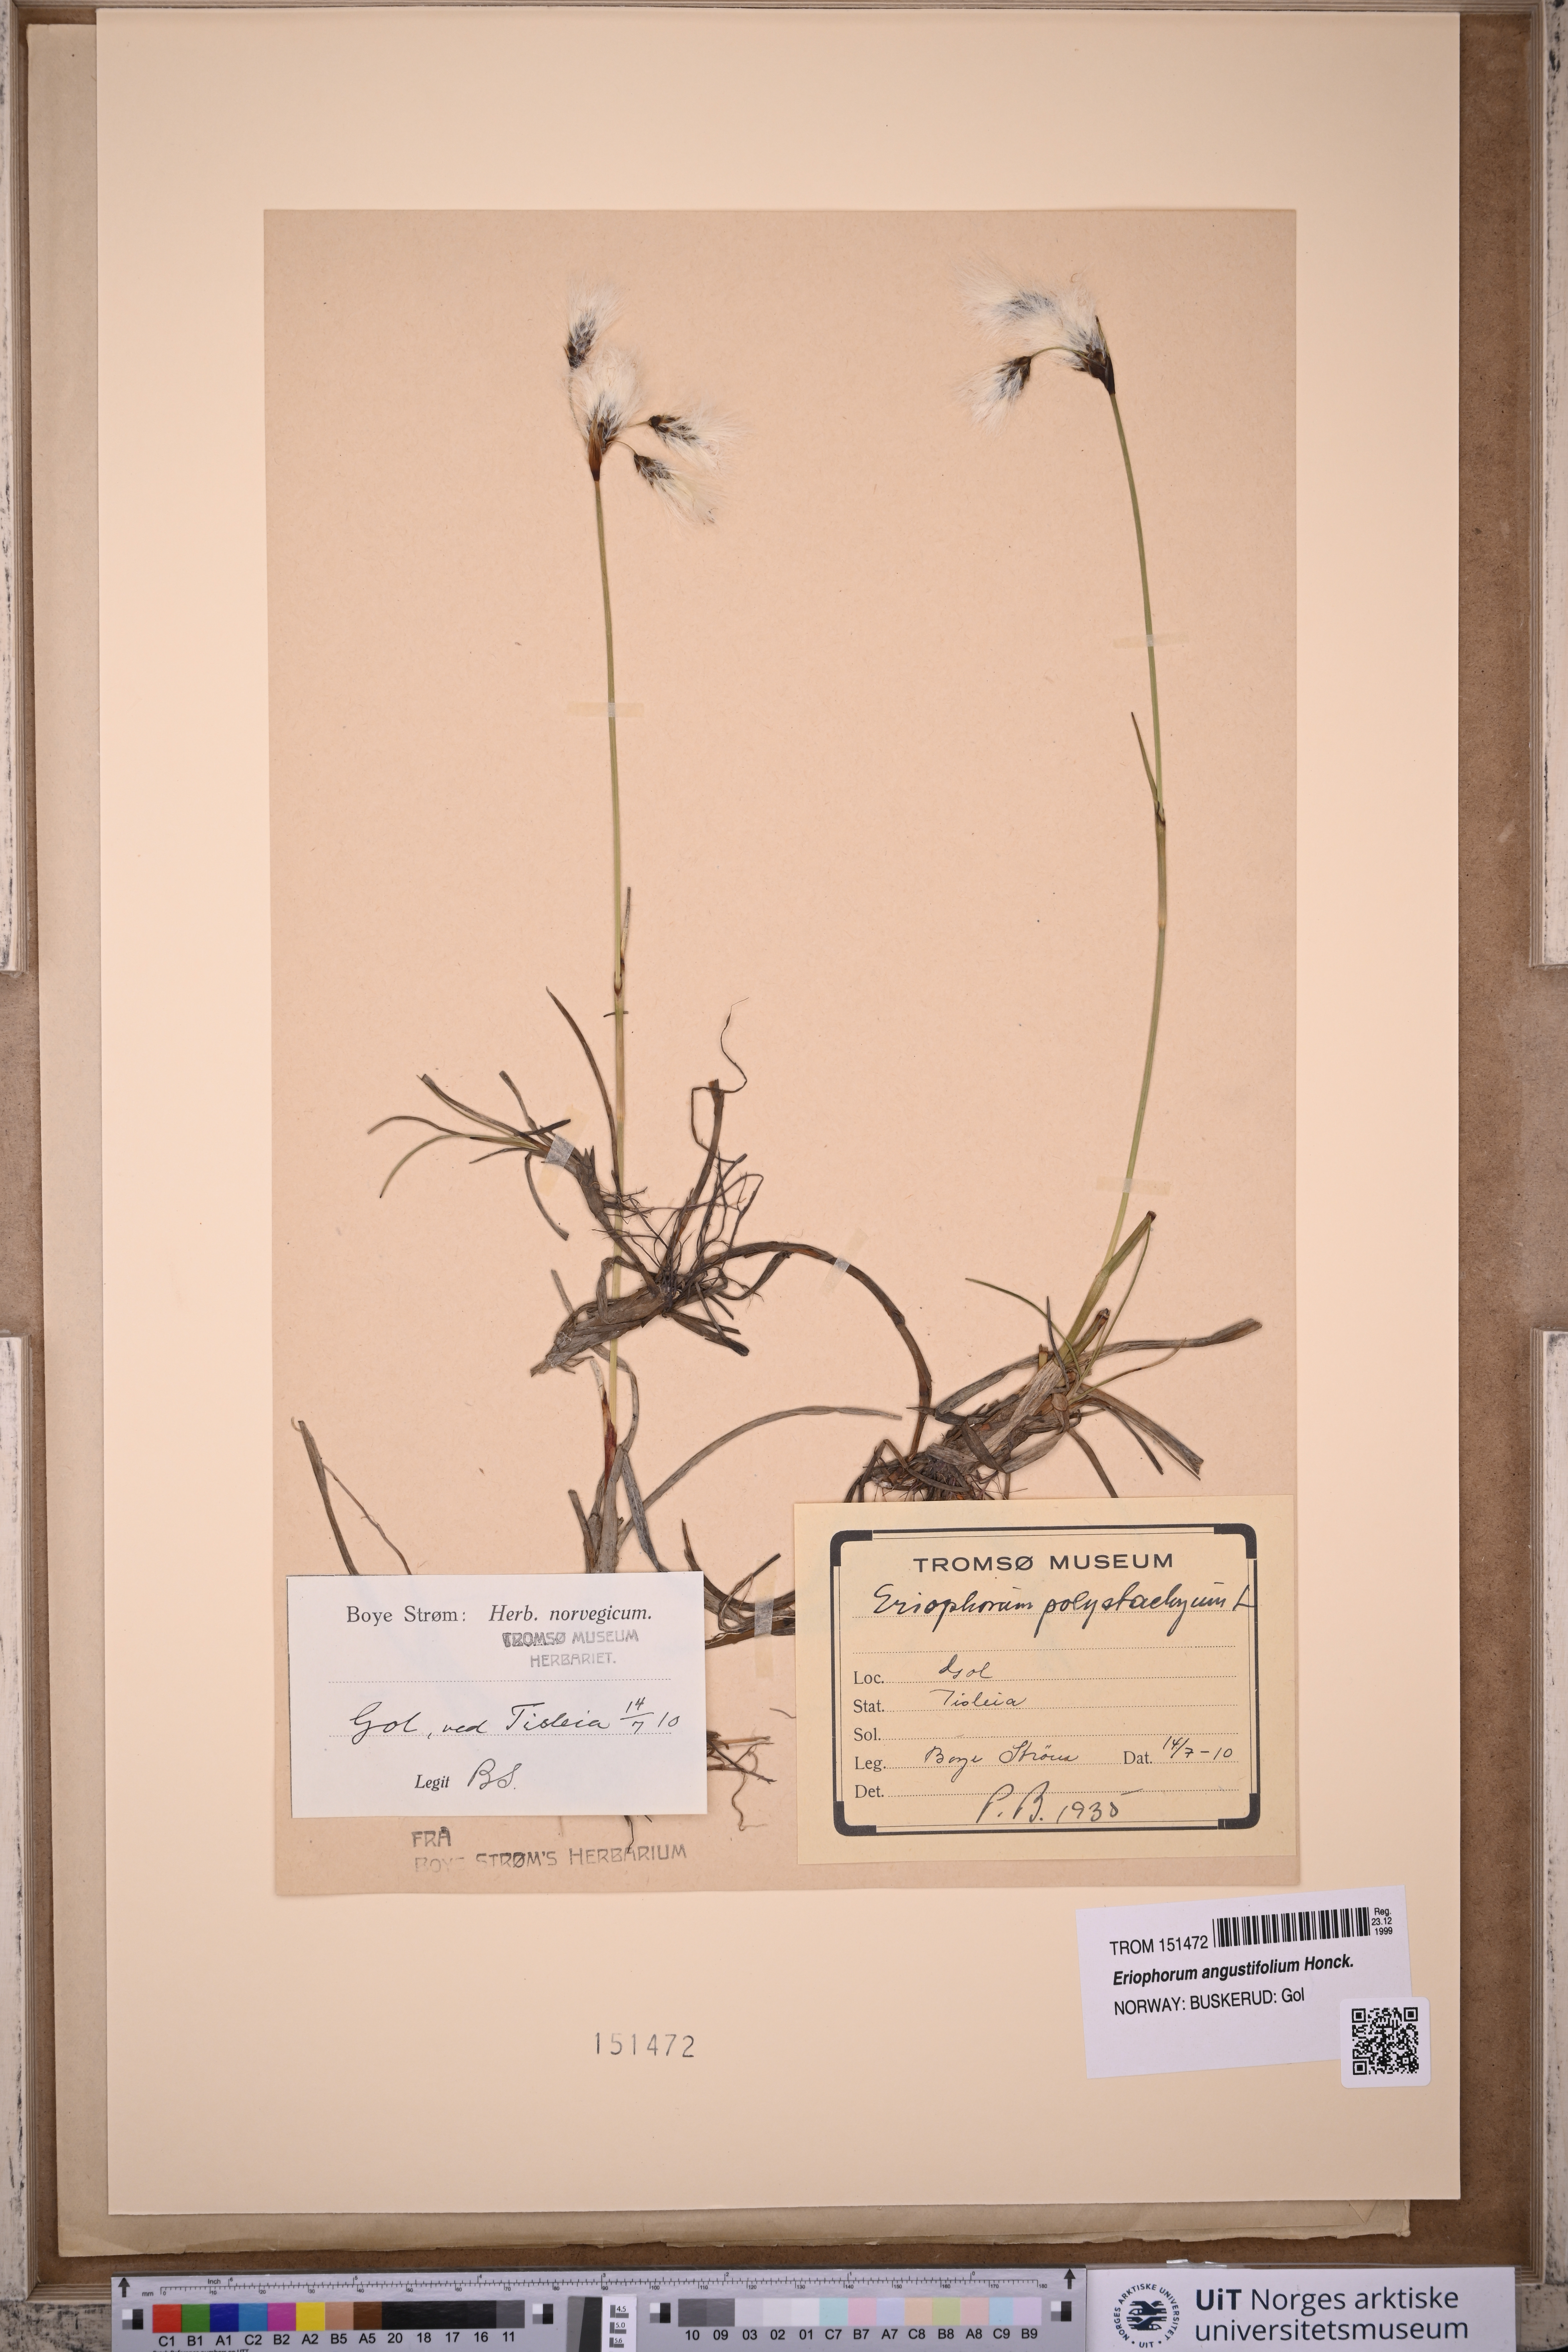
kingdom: Plantae
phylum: Tracheophyta
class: Liliopsida
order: Poales
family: Cyperaceae
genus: Eriophorum
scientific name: Eriophorum angustifolium
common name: Common cottongrass
